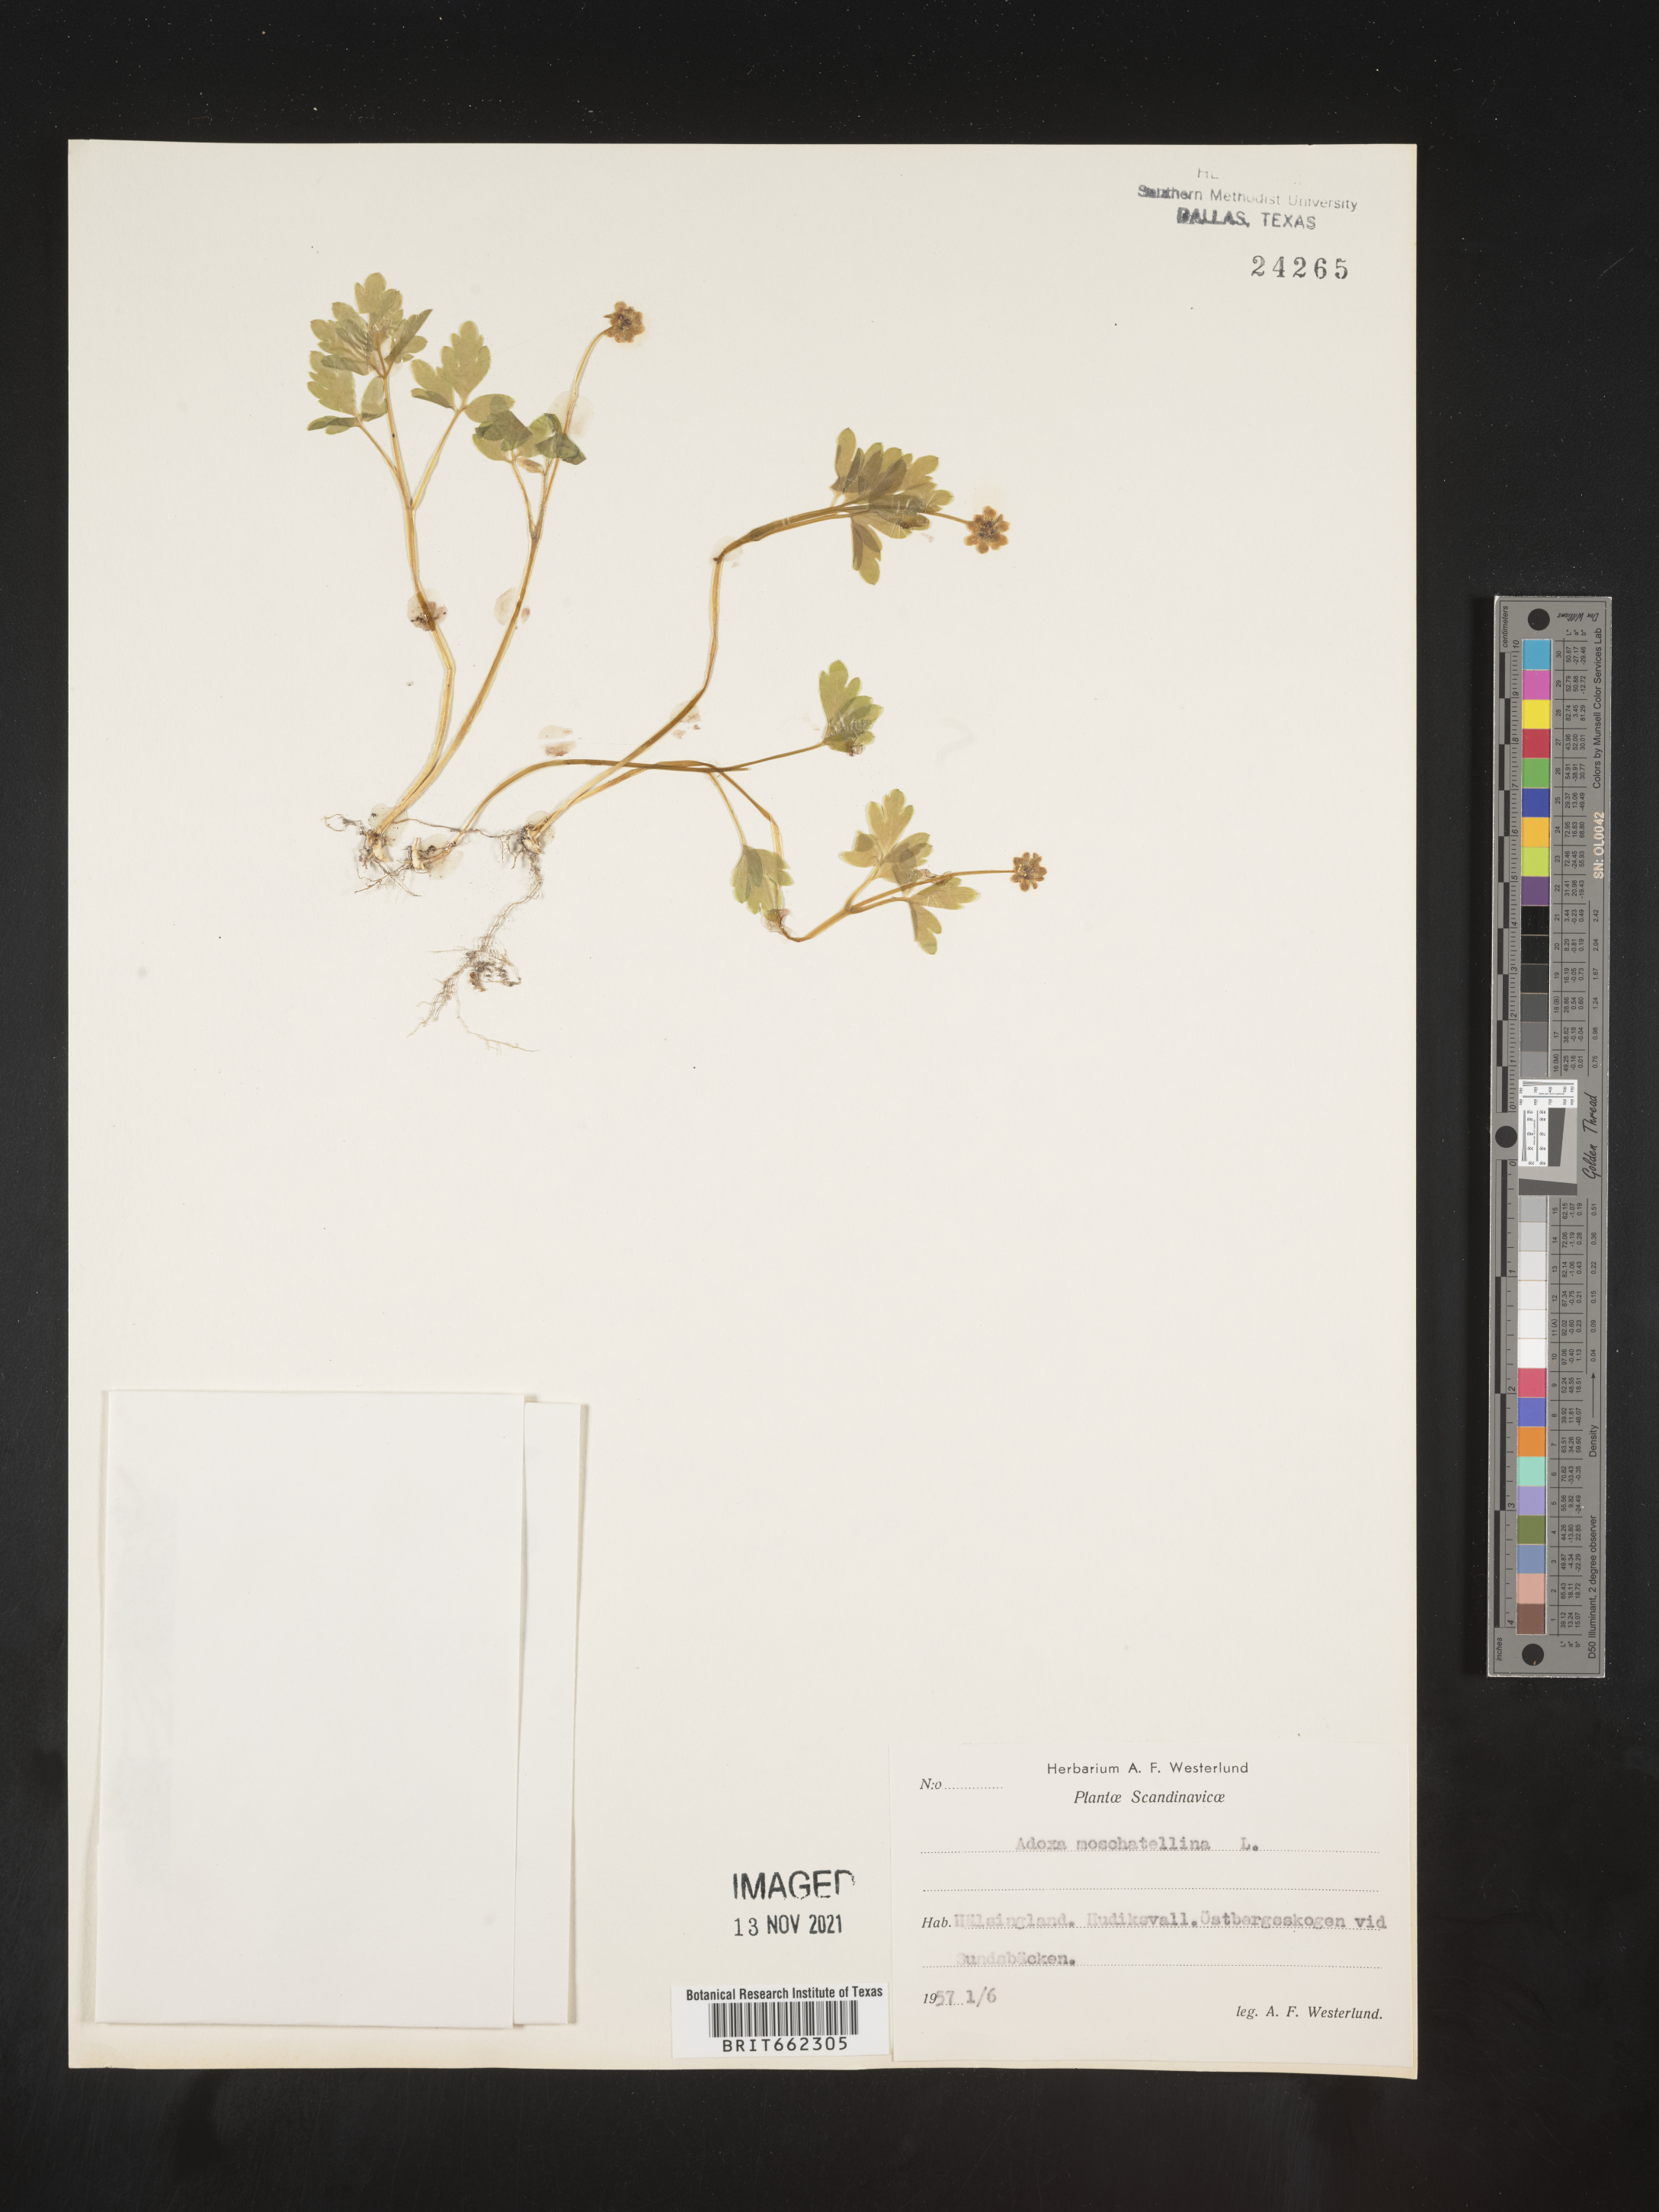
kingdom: Plantae
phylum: Tracheophyta
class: Magnoliopsida
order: Dipsacales
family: Viburnaceae
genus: Adoxa
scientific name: Adoxa
